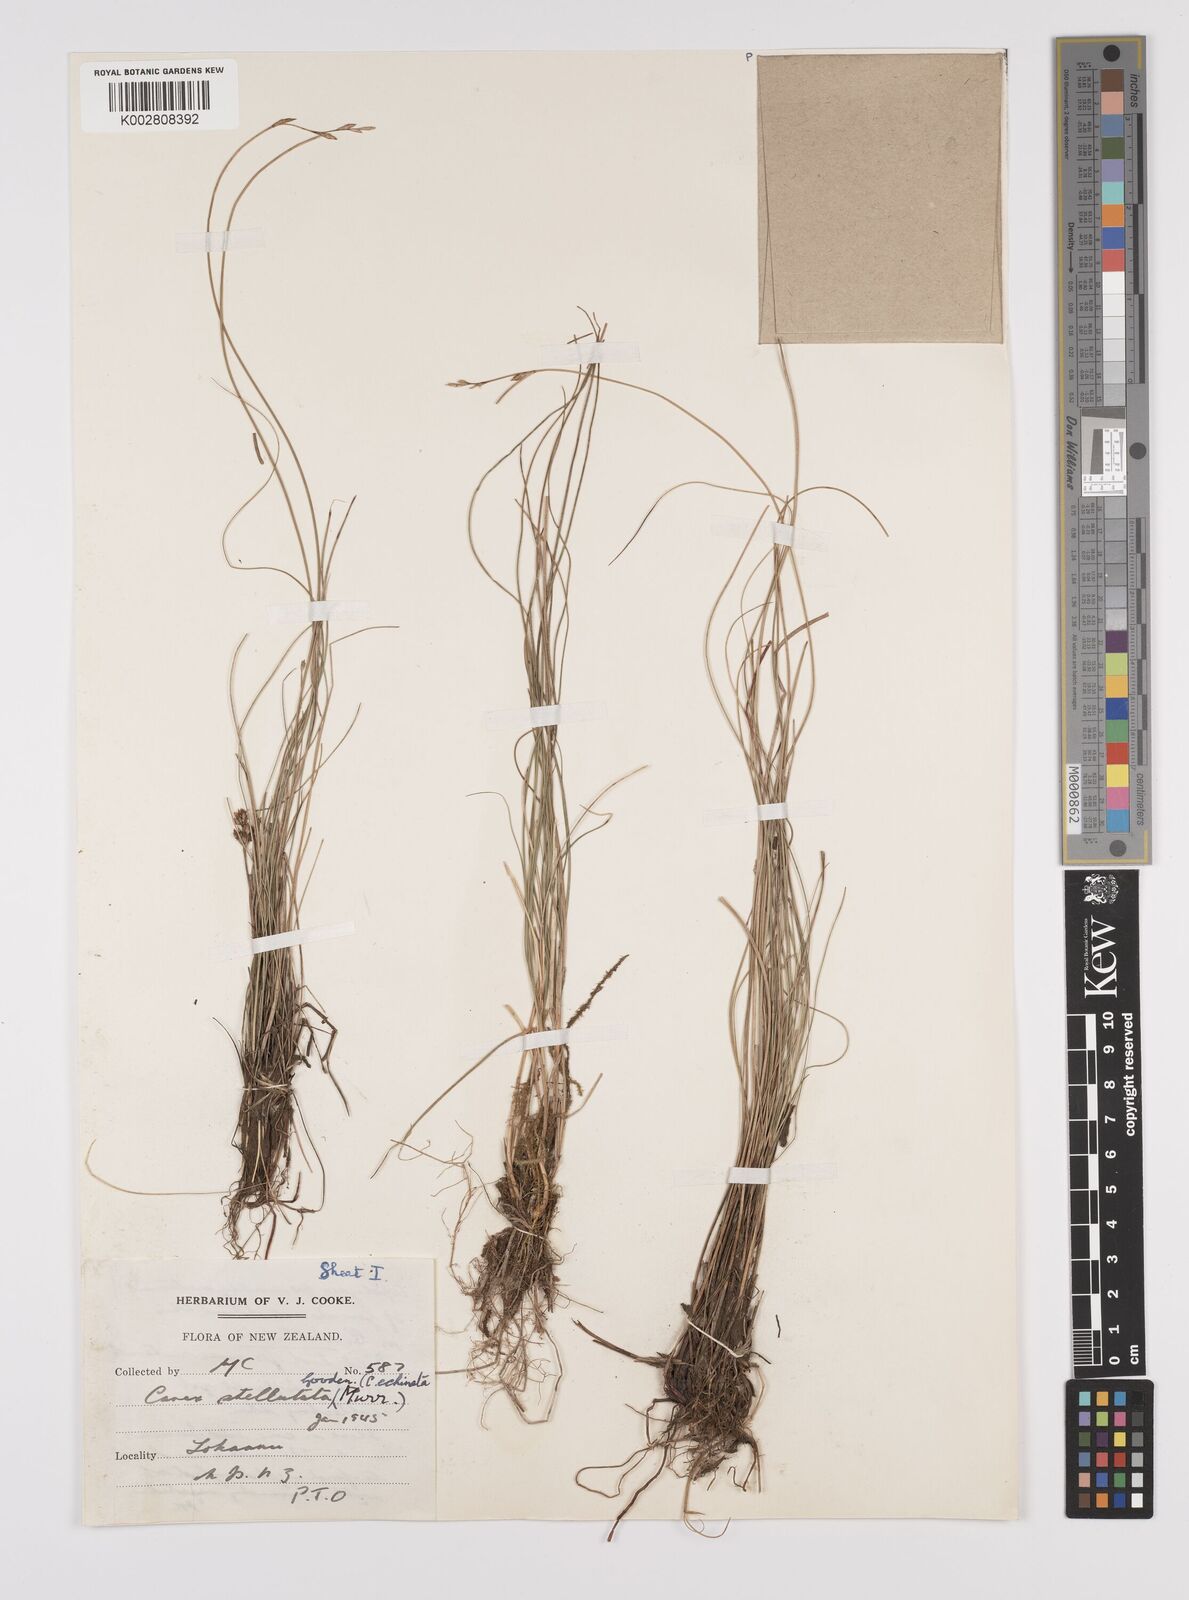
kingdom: Plantae
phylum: Tracheophyta
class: Liliopsida
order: Poales
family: Cyperaceae
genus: Carex
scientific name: Carex echinata
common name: Star sedge
